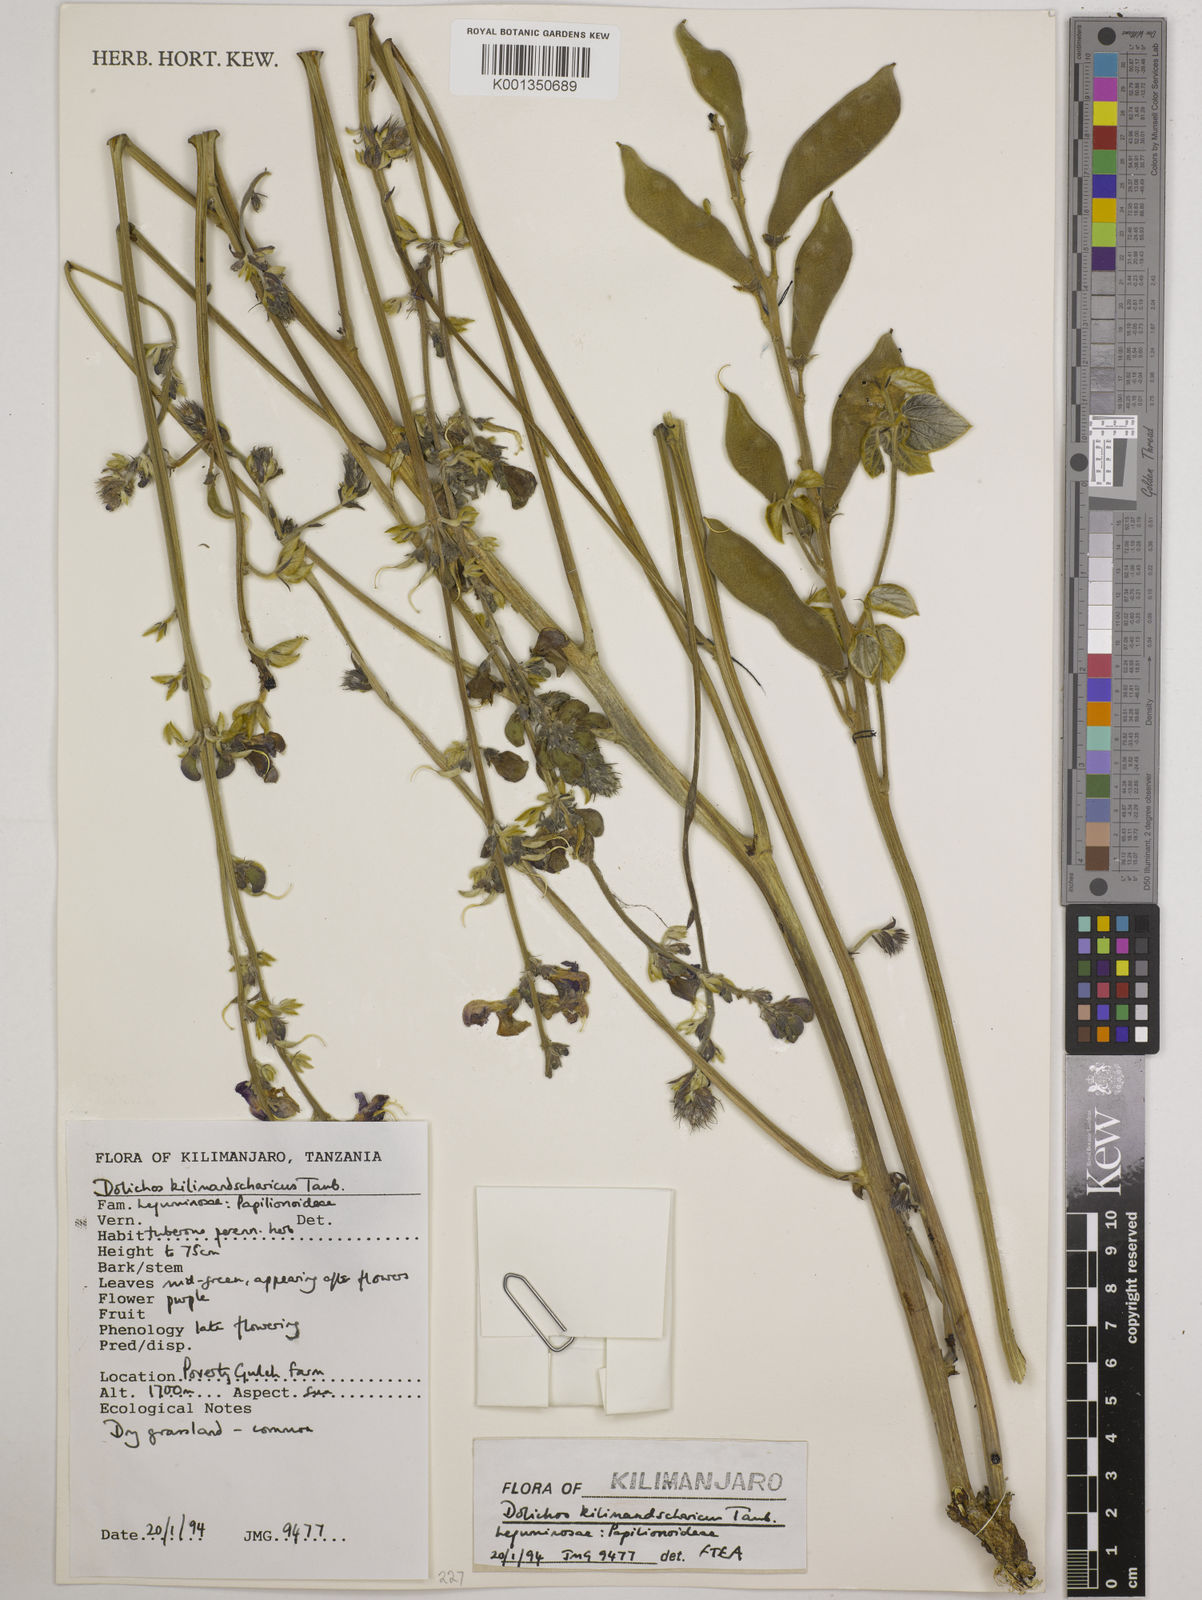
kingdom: Plantae
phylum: Tracheophyta
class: Magnoliopsida
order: Fabales
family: Fabaceae
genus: Dolichos
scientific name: Dolichos kilimandscharicus
